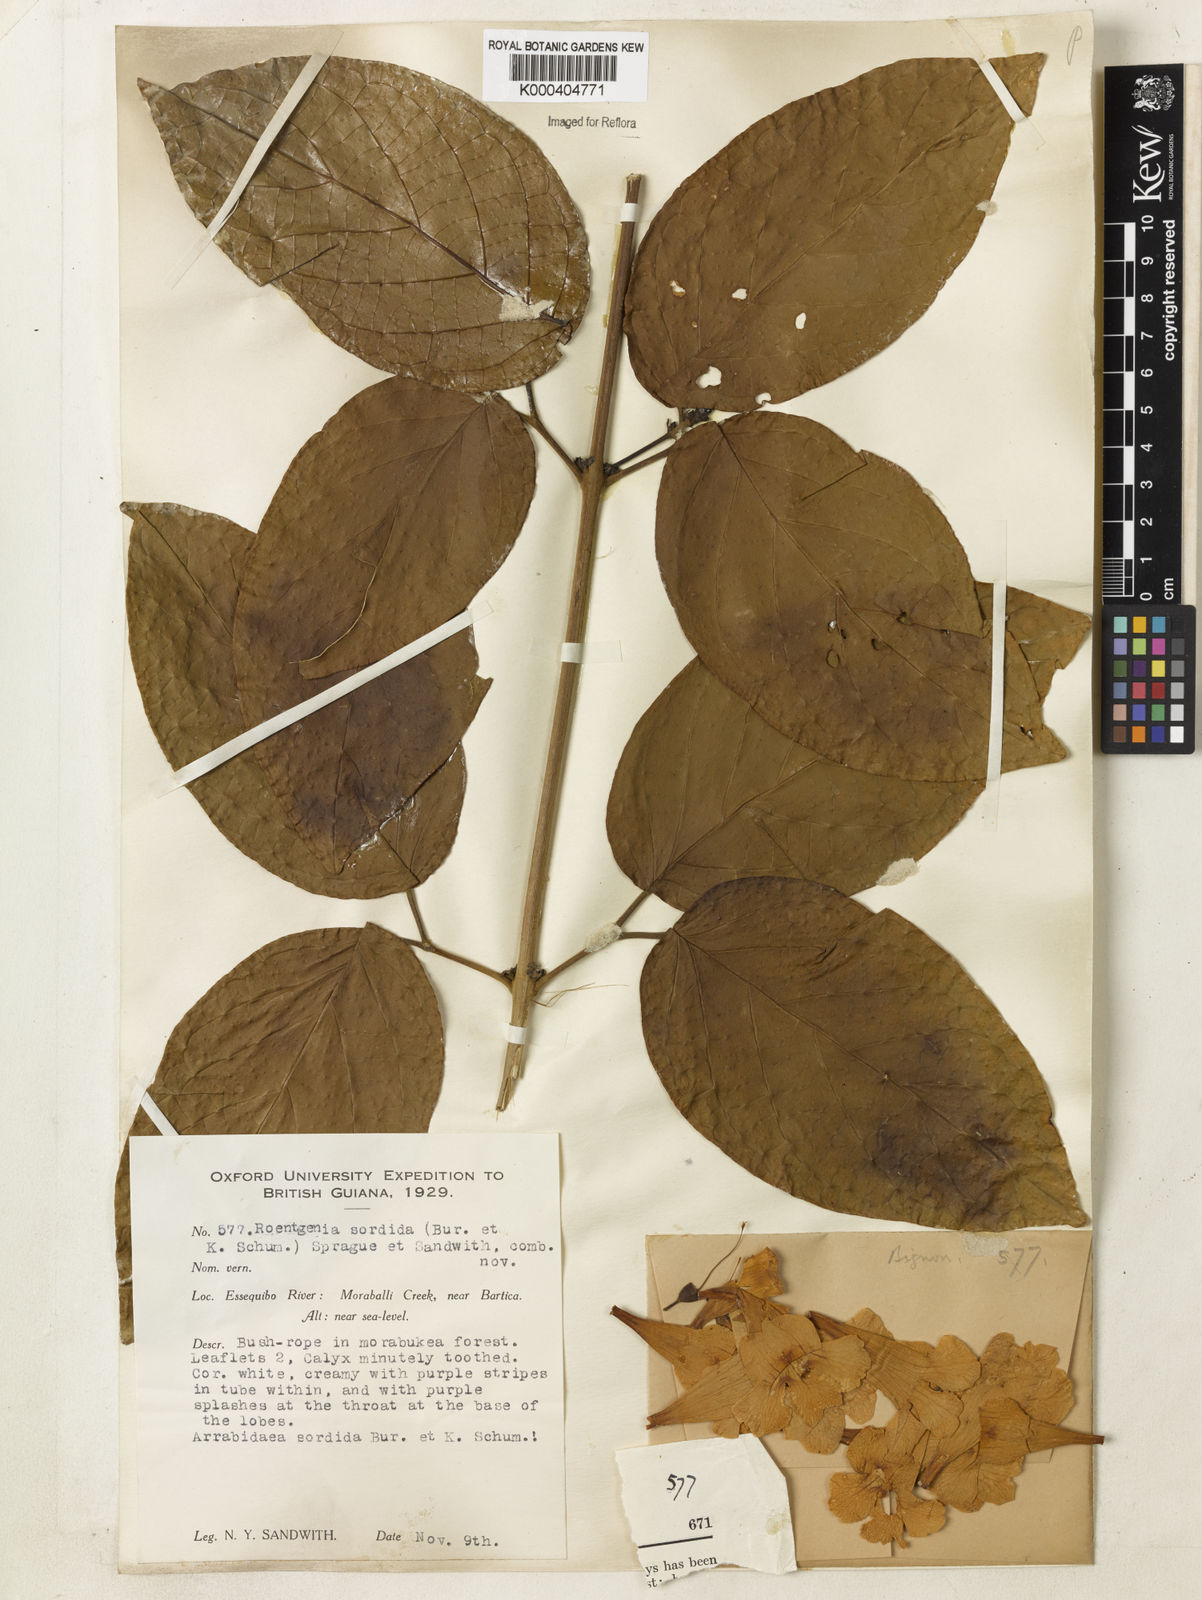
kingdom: Plantae
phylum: Tracheophyta
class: Magnoliopsida
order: Lamiales
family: Bignoniaceae
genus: Bignonia
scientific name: Bignonia sordida
